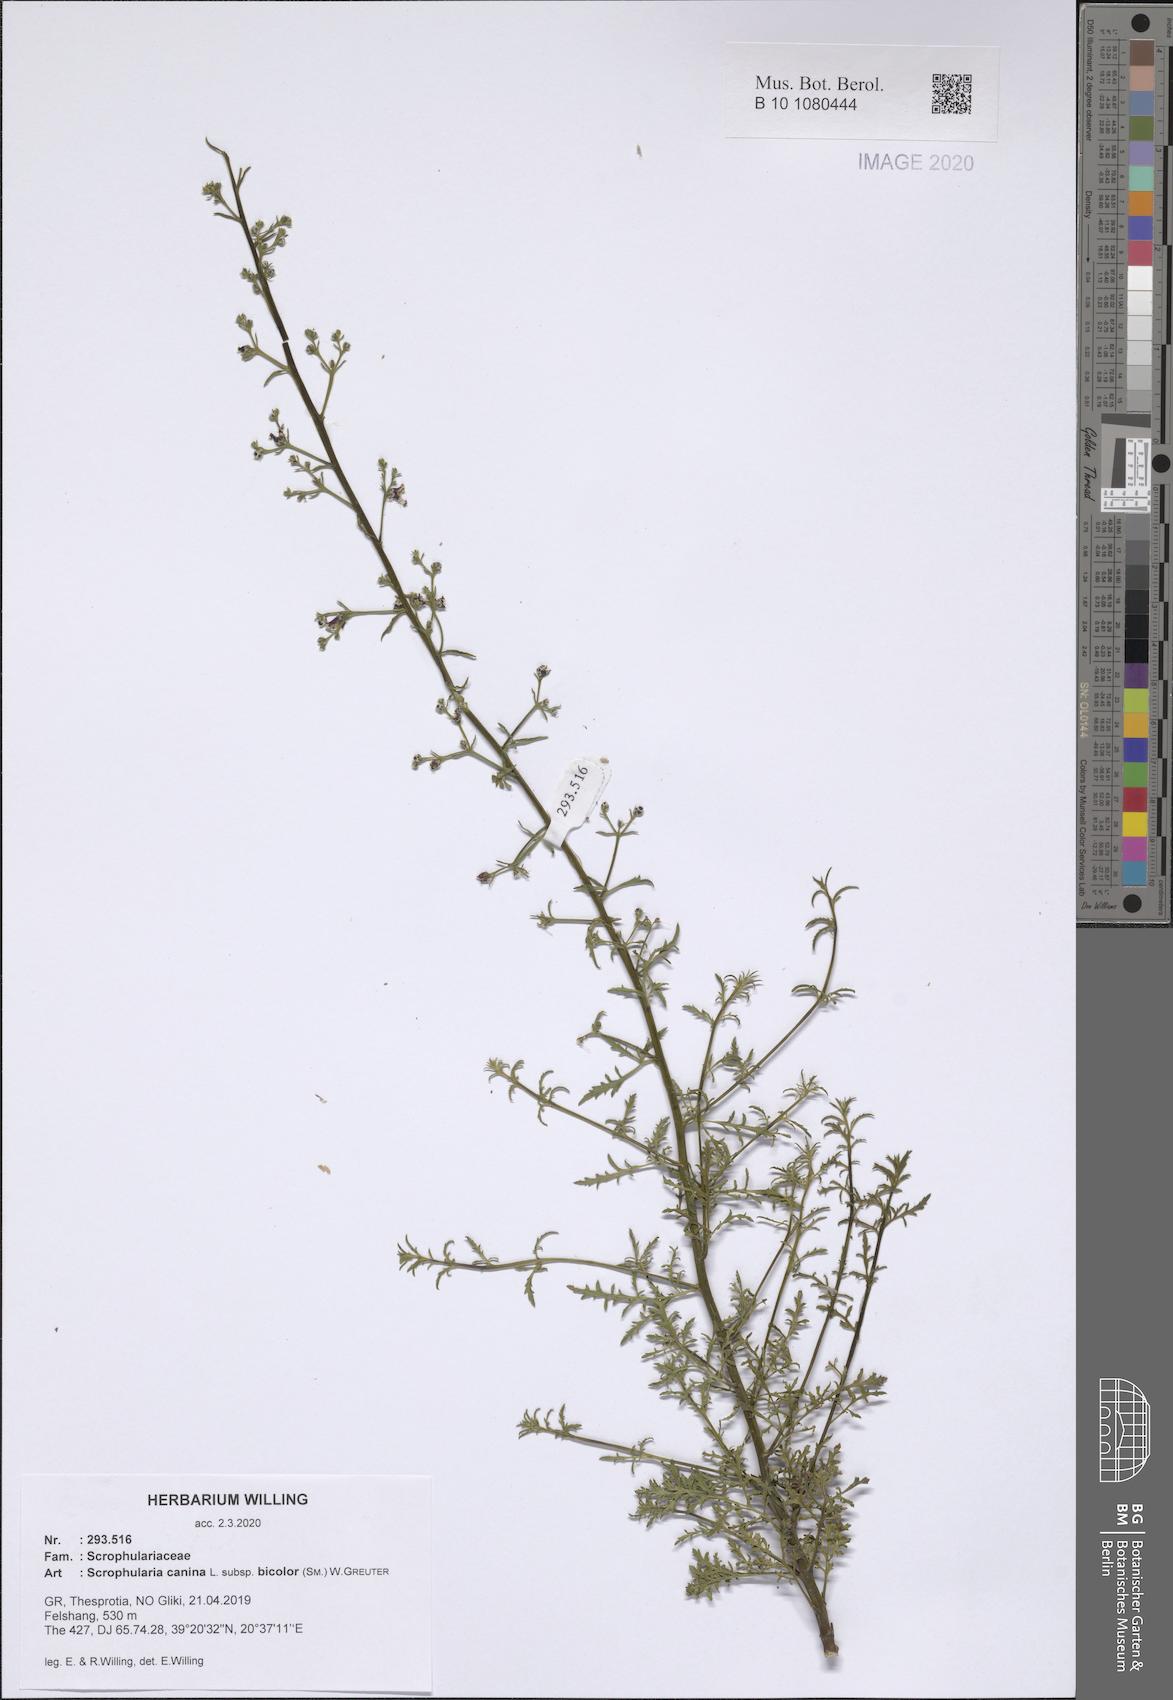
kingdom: Plantae
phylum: Tracheophyta
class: Magnoliopsida
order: Lamiales
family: Scrophulariaceae
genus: Scrophularia
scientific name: Scrophularia canina
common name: French figwort
